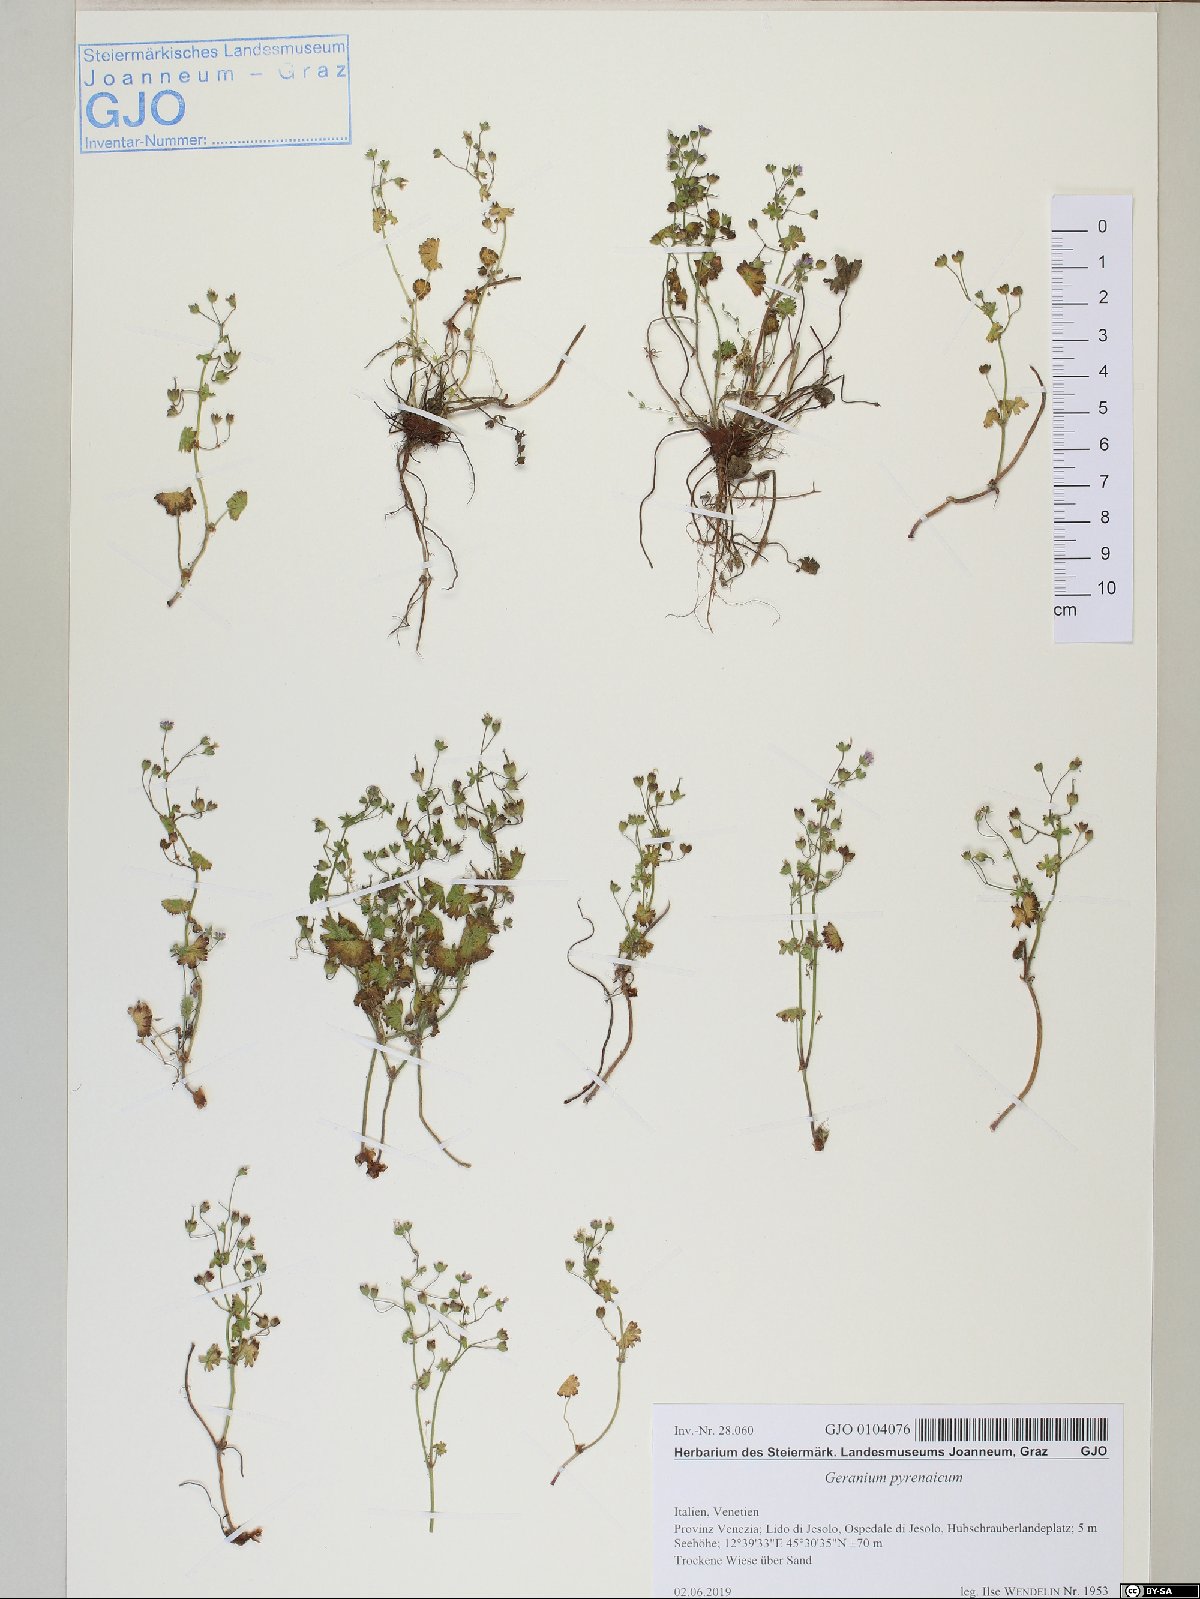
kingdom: Plantae
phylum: Tracheophyta
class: Magnoliopsida
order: Geraniales
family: Geraniaceae
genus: Geranium
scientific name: Geranium pyrenaicum
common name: Hedgerow crane's-bill
